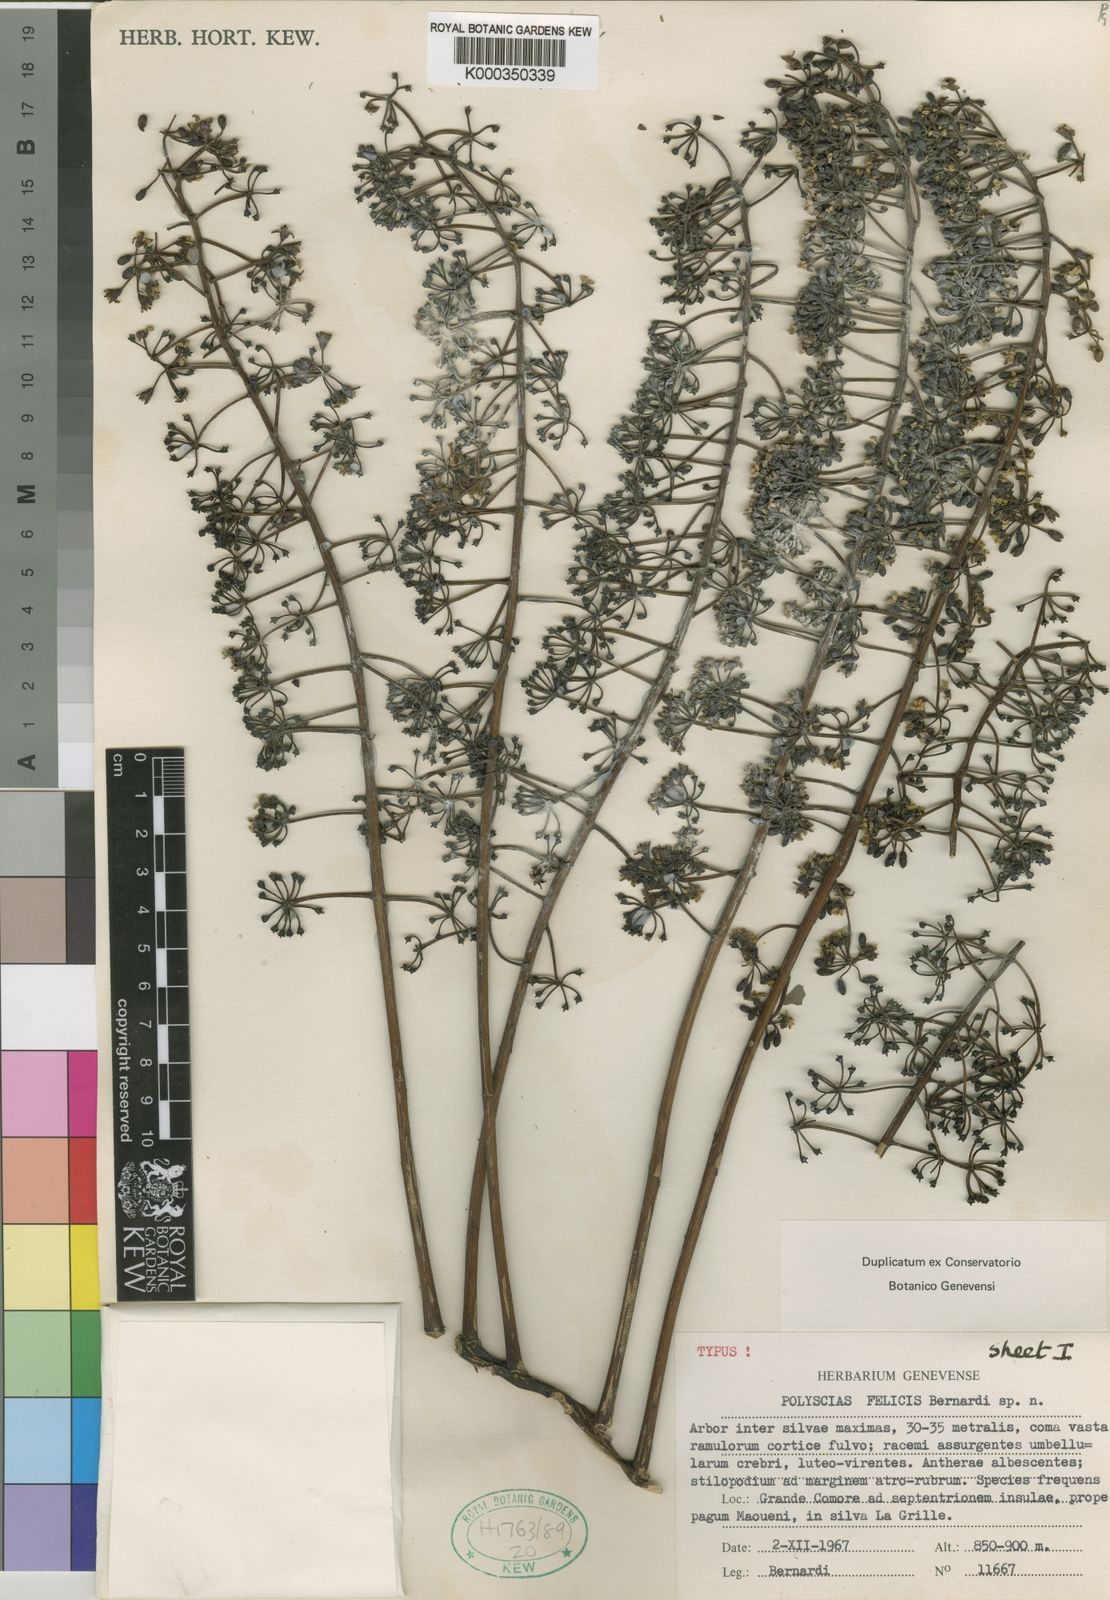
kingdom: Plantae
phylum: Tracheophyta
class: Magnoliopsida
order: Apiales
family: Araliaceae
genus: Polyscias
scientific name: Polyscias felicis
